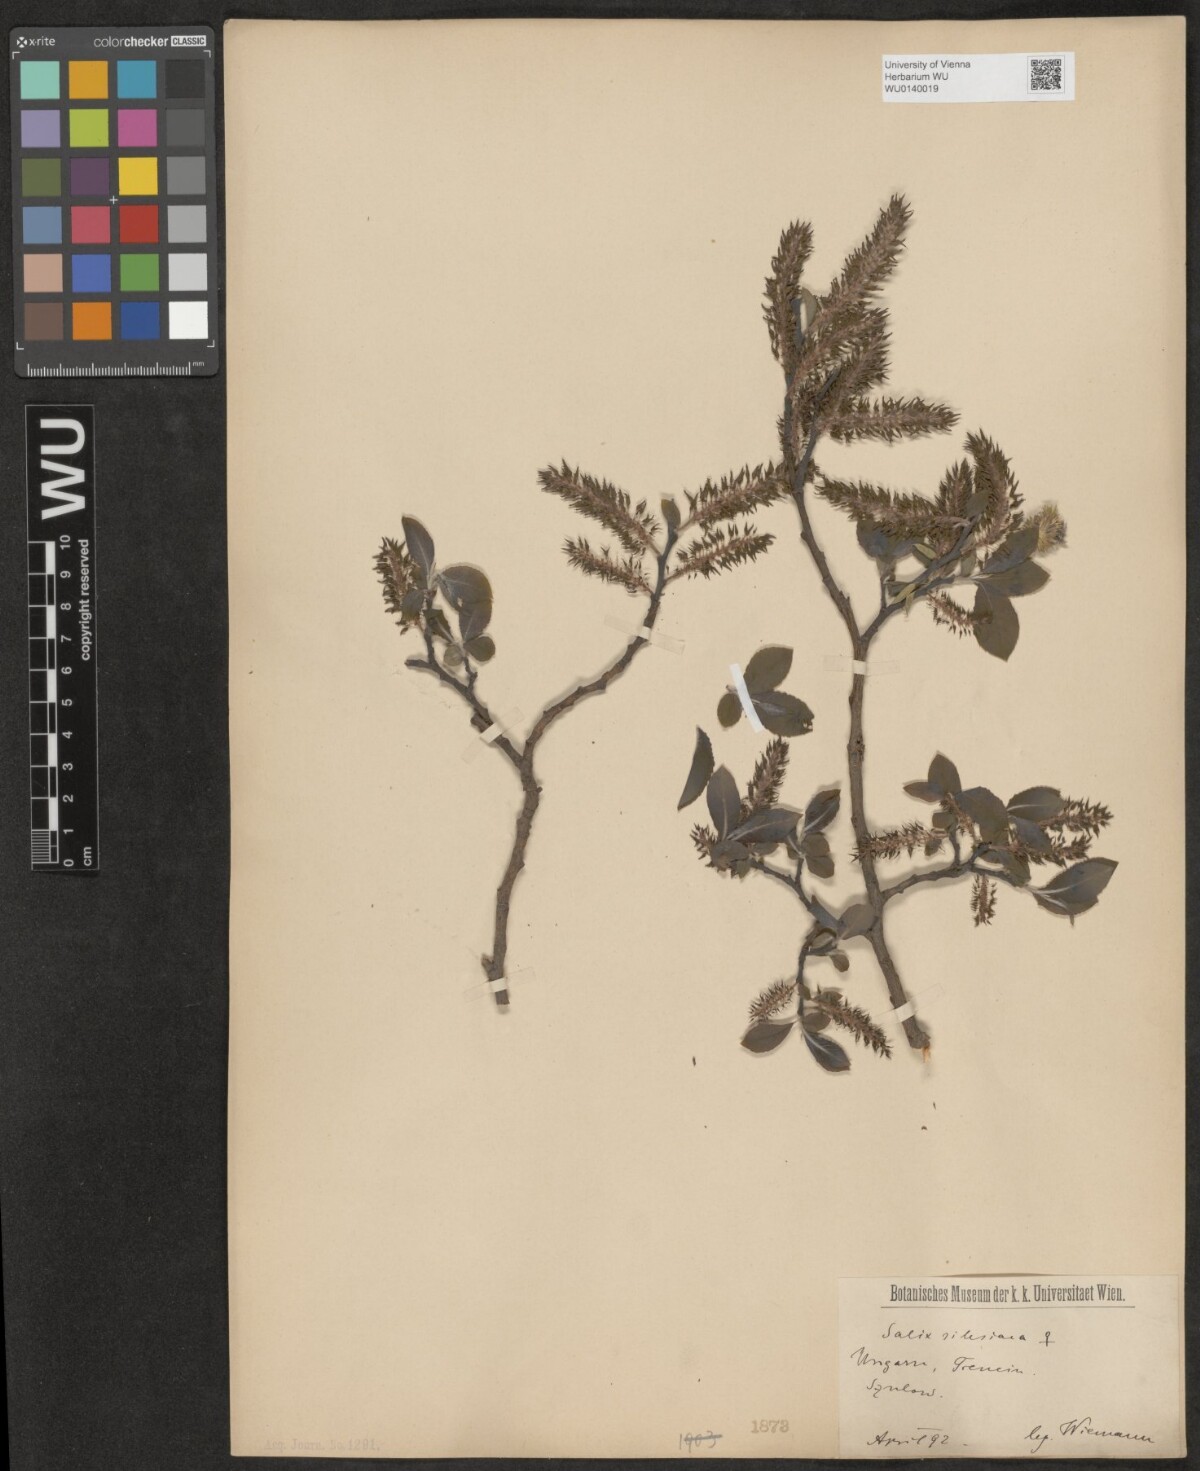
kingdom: Plantae
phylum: Tracheophyta
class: Magnoliopsida
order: Malpighiales
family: Salicaceae
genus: Salix
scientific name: Salix silesiaca
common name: Silesian willow
